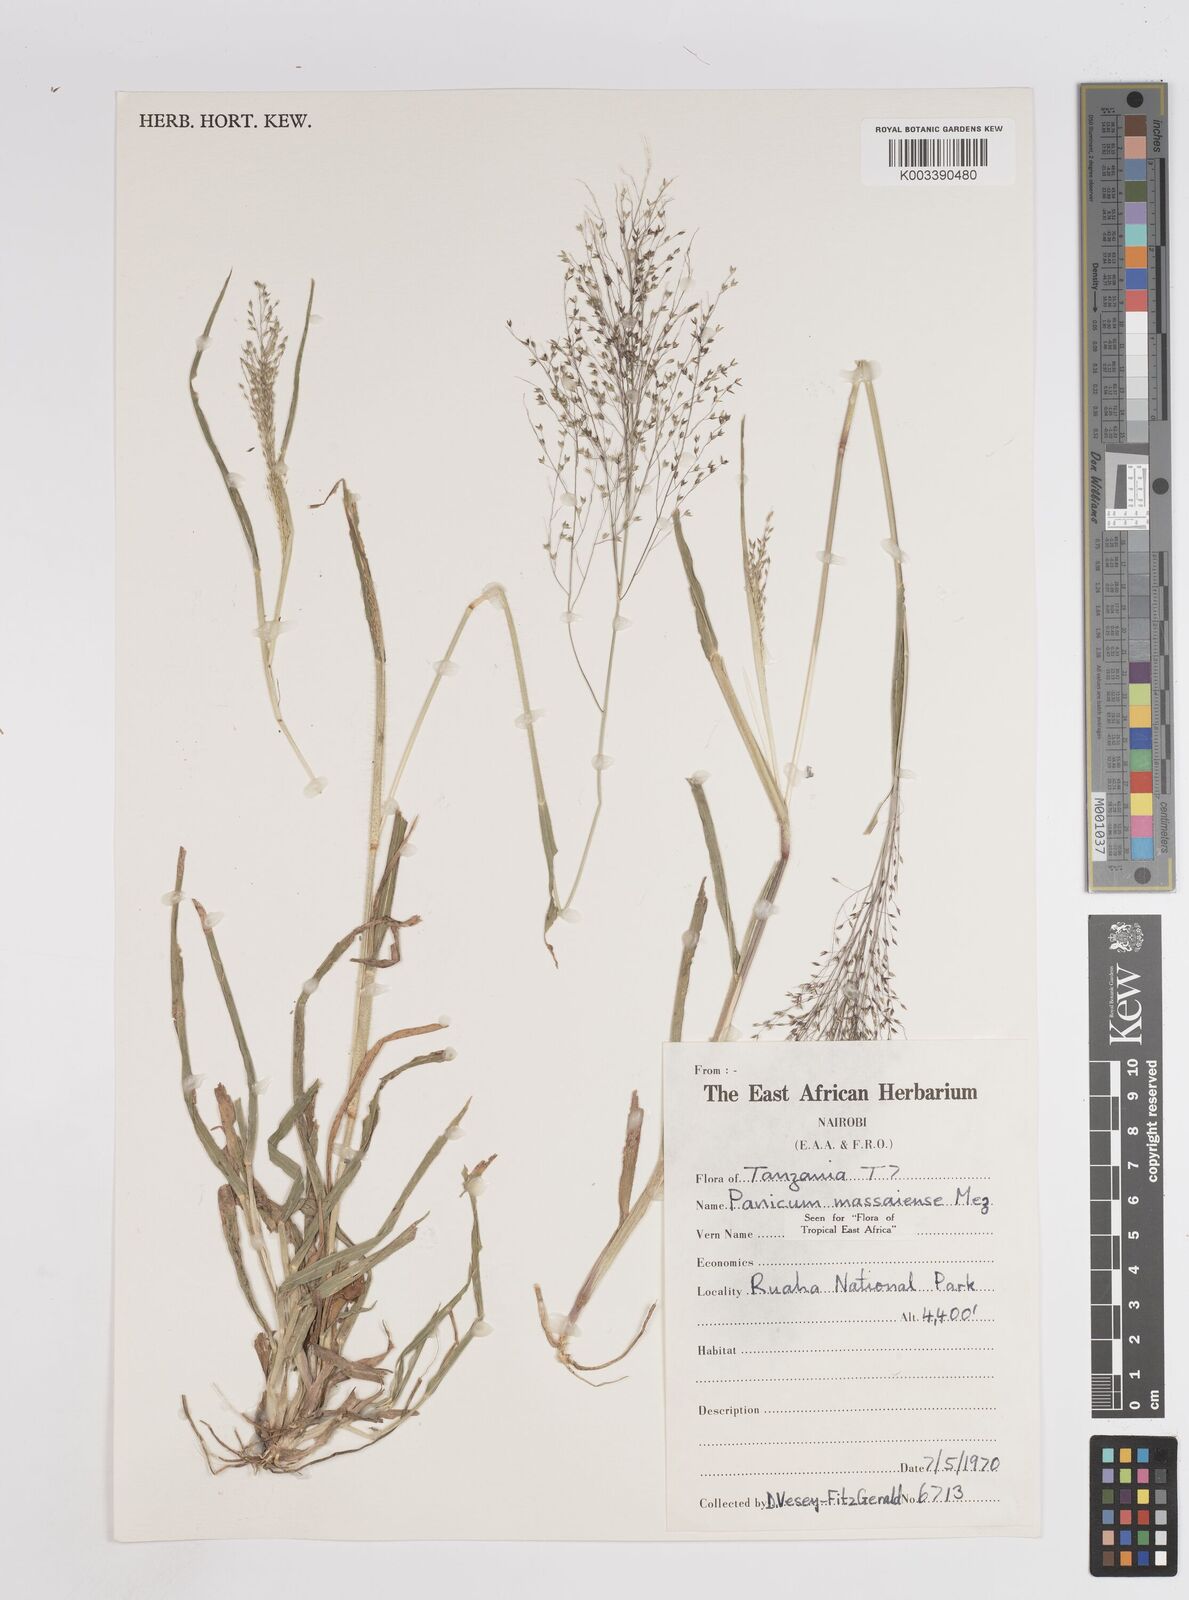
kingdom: Plantae
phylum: Tracheophyta
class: Liliopsida
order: Poales
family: Poaceae
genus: Panicum
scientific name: Panicum massaiense
